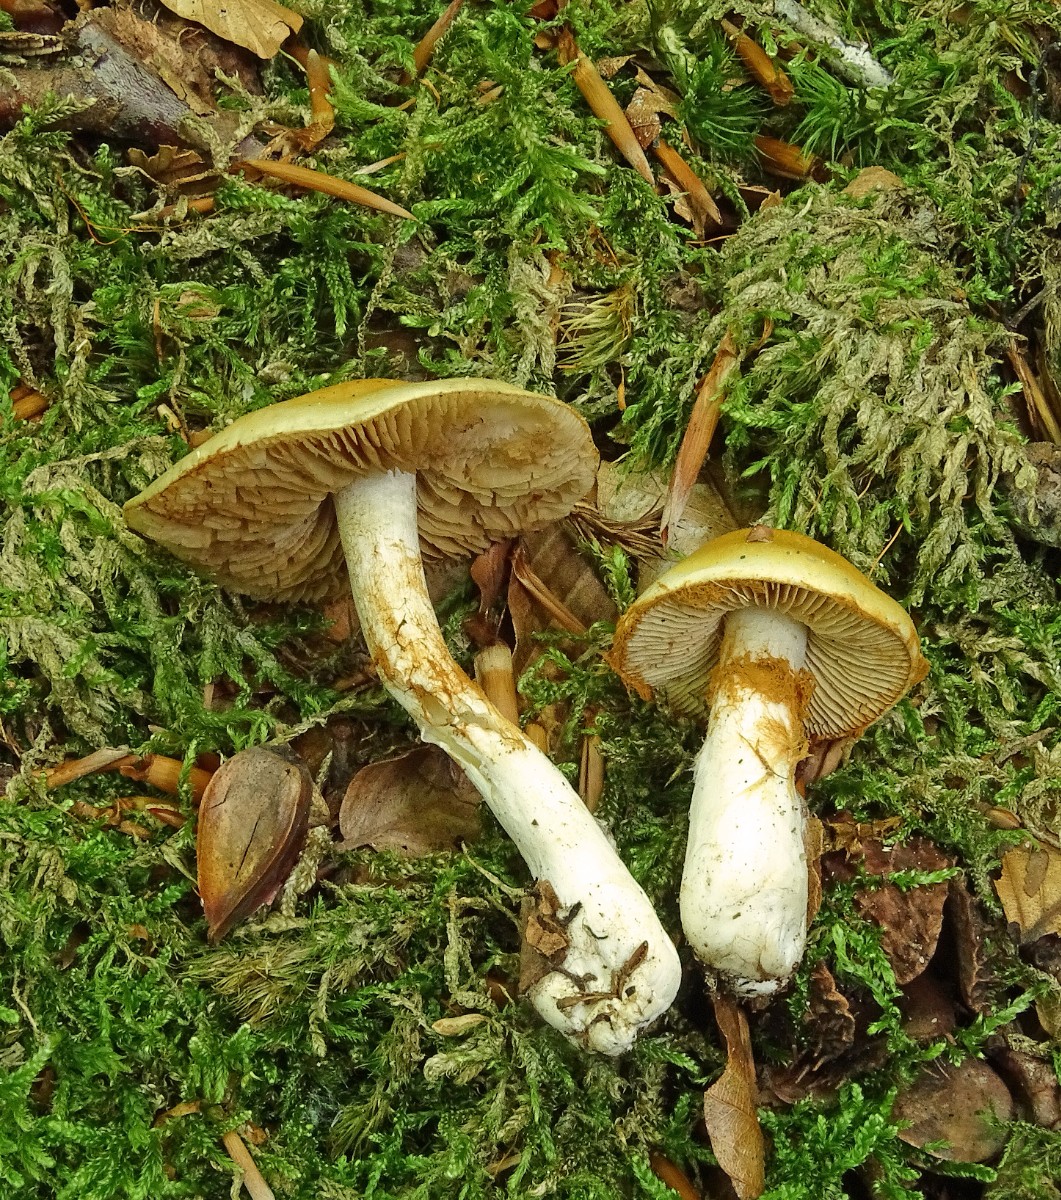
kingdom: Fungi
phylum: Basidiomycota
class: Agaricomycetes
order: Agaricales
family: Cortinariaceae
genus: Cortinarius
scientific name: Cortinarius
